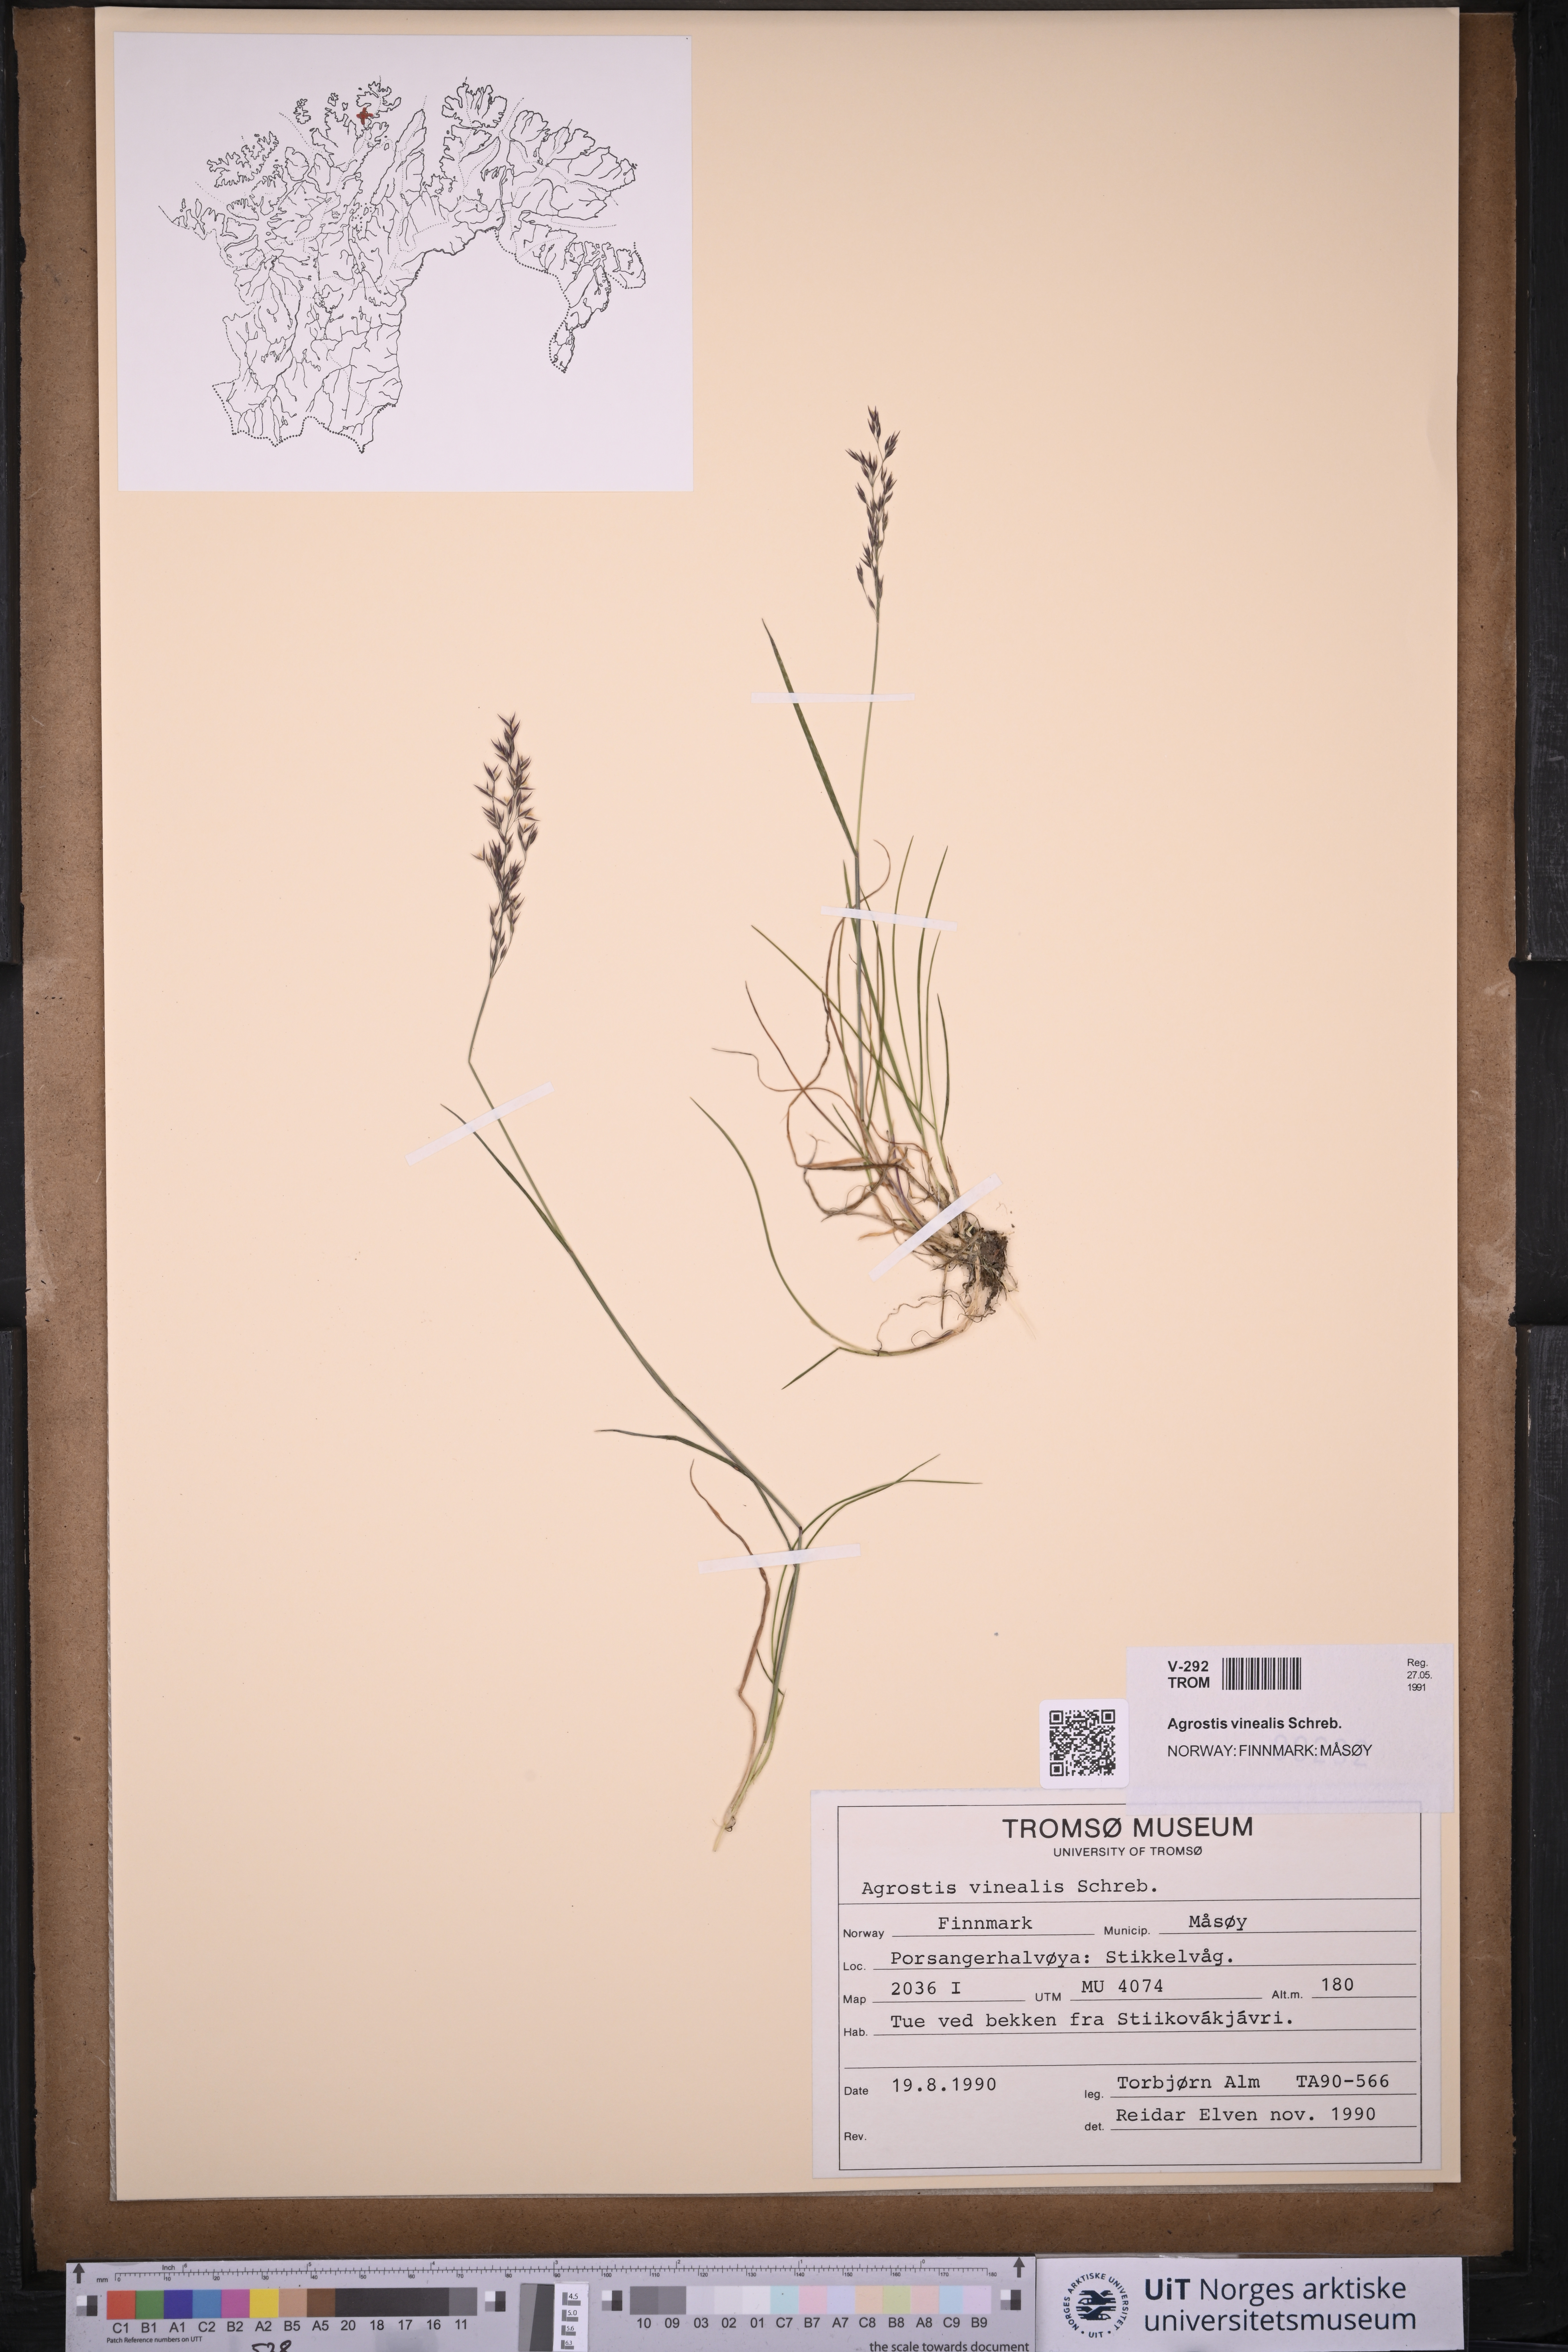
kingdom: Plantae
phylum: Tracheophyta
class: Liliopsida
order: Poales
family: Poaceae
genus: Agrostis
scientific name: Agrostis vinealis
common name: Brown bent
